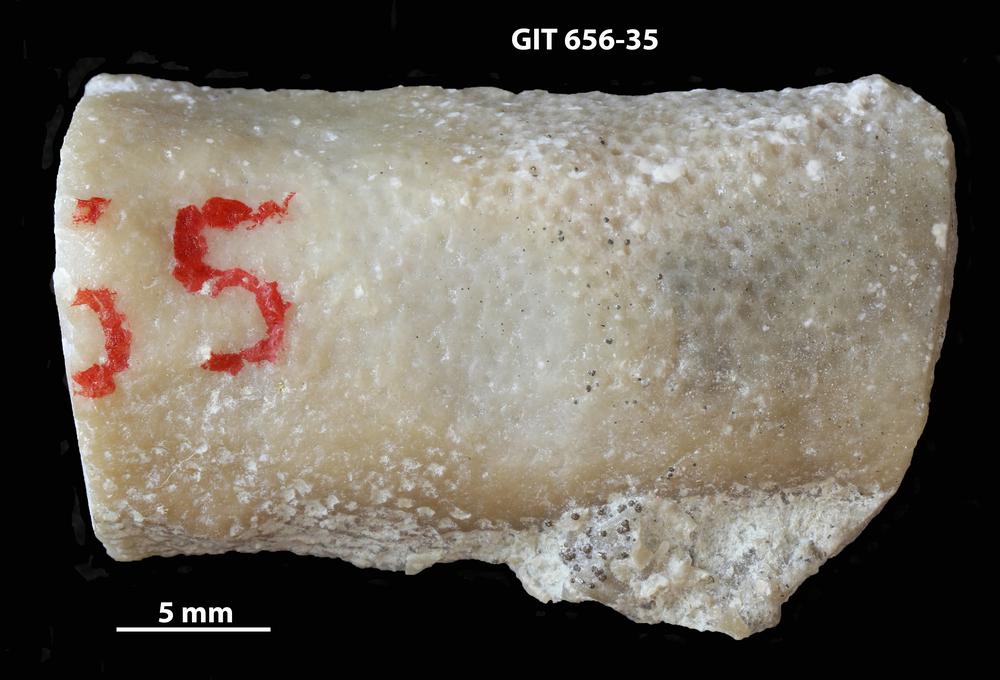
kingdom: Animalia
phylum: Cnidaria
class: Anthozoa
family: Theciidae
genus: Laceripora
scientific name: Laceripora
